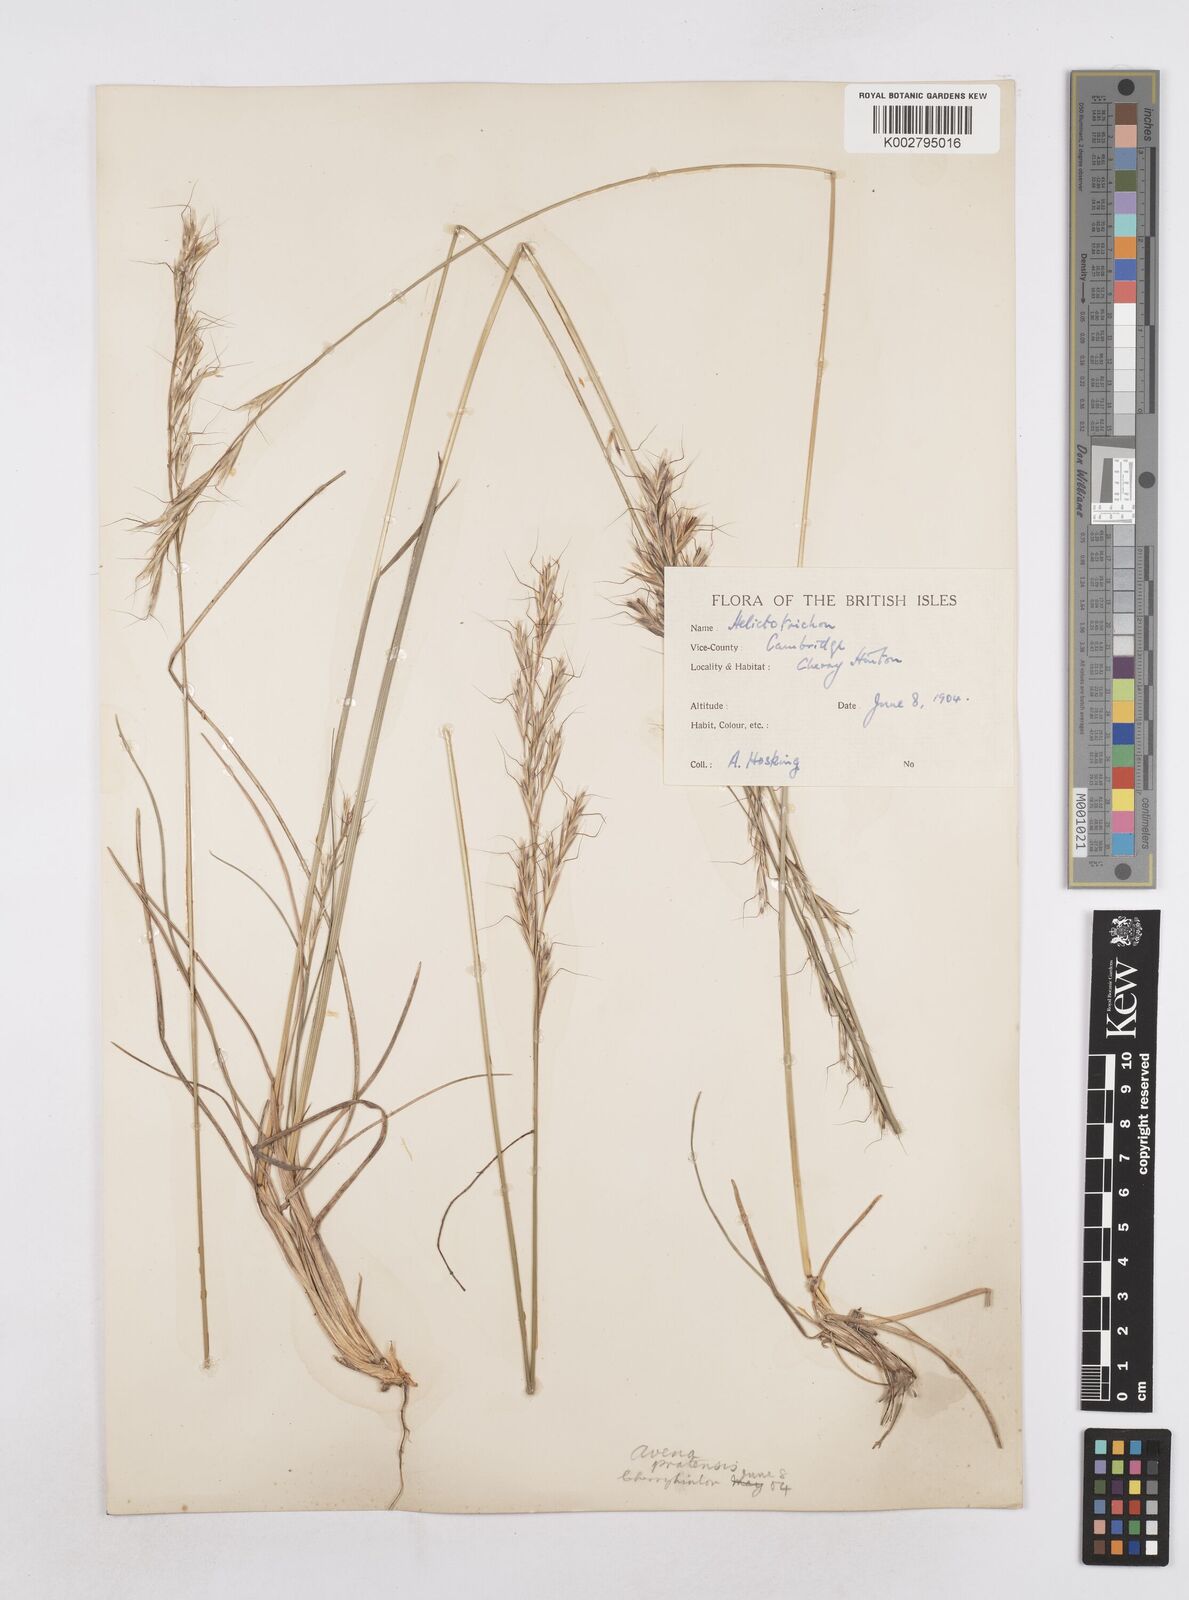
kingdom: Plantae
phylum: Tracheophyta
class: Liliopsida
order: Poales
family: Poaceae
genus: Helictochloa
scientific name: Helictochloa pratensis
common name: Meadow oat grass
